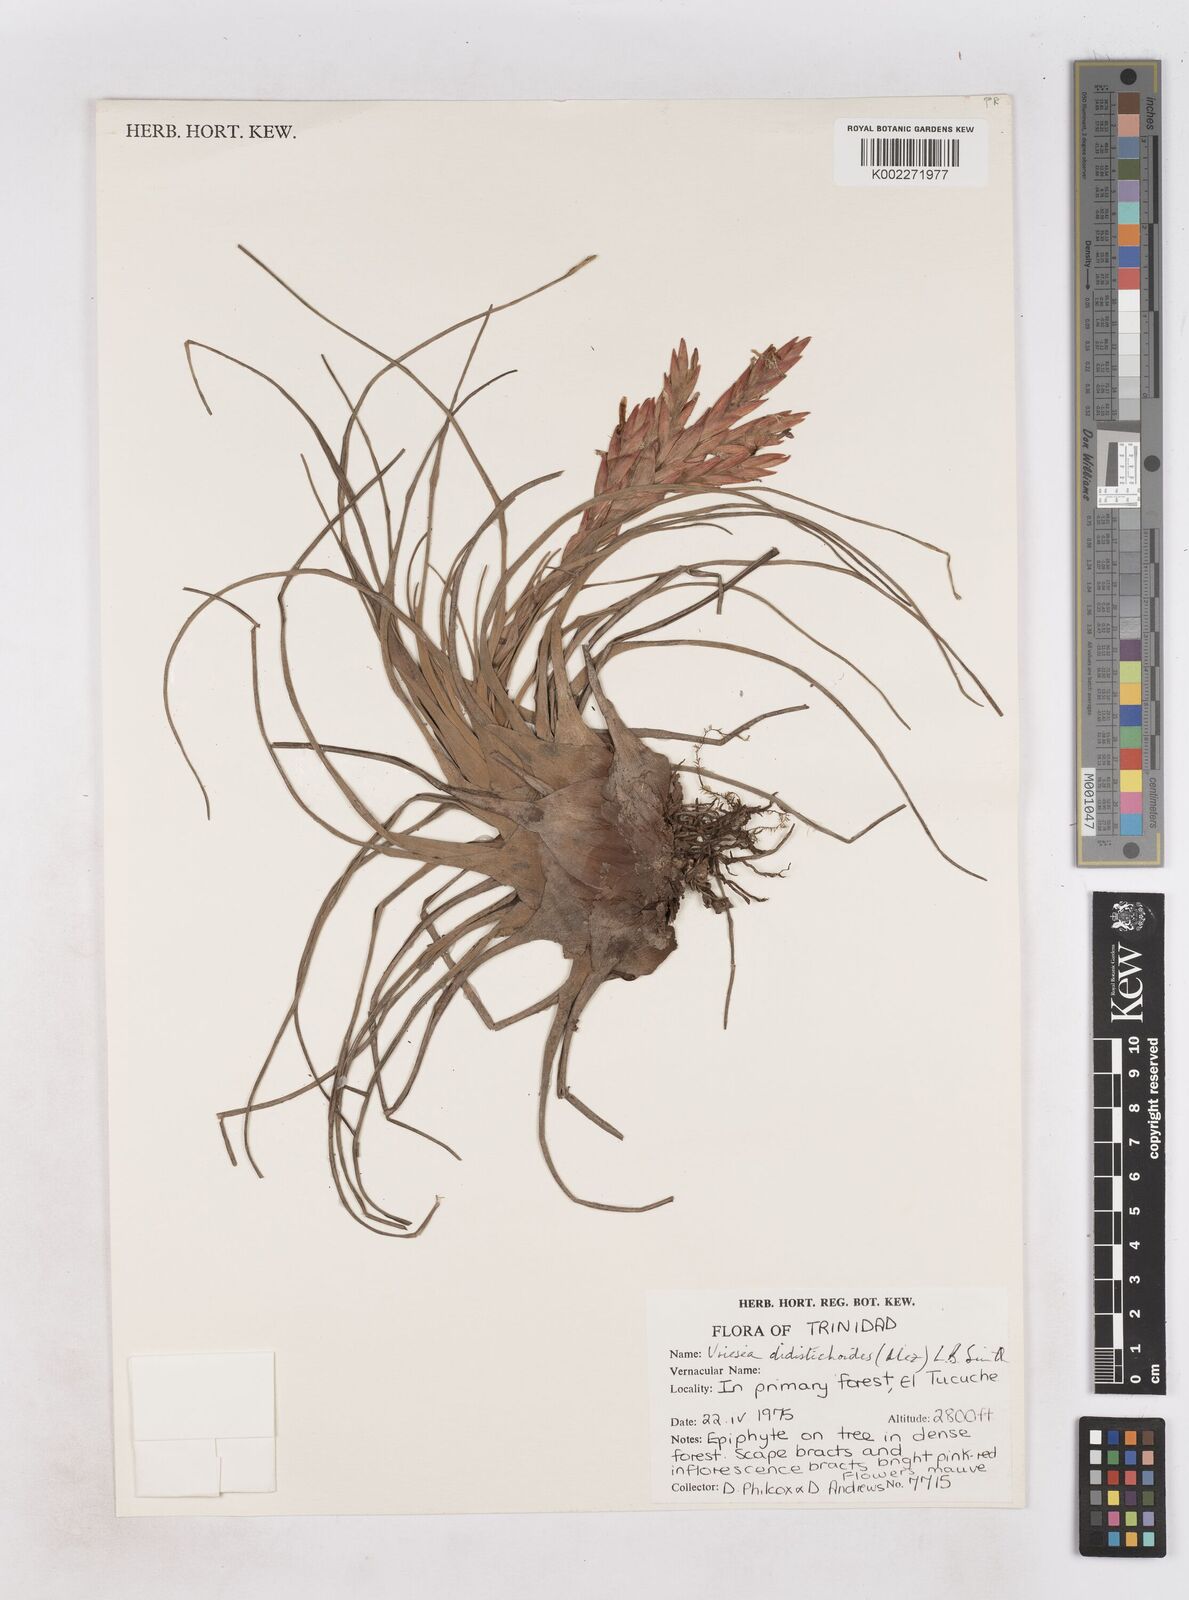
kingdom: Plantae
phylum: Tracheophyta
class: Liliopsida
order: Poales
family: Bromeliaceae
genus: Tillandsia
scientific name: Tillandsia didistichoides
